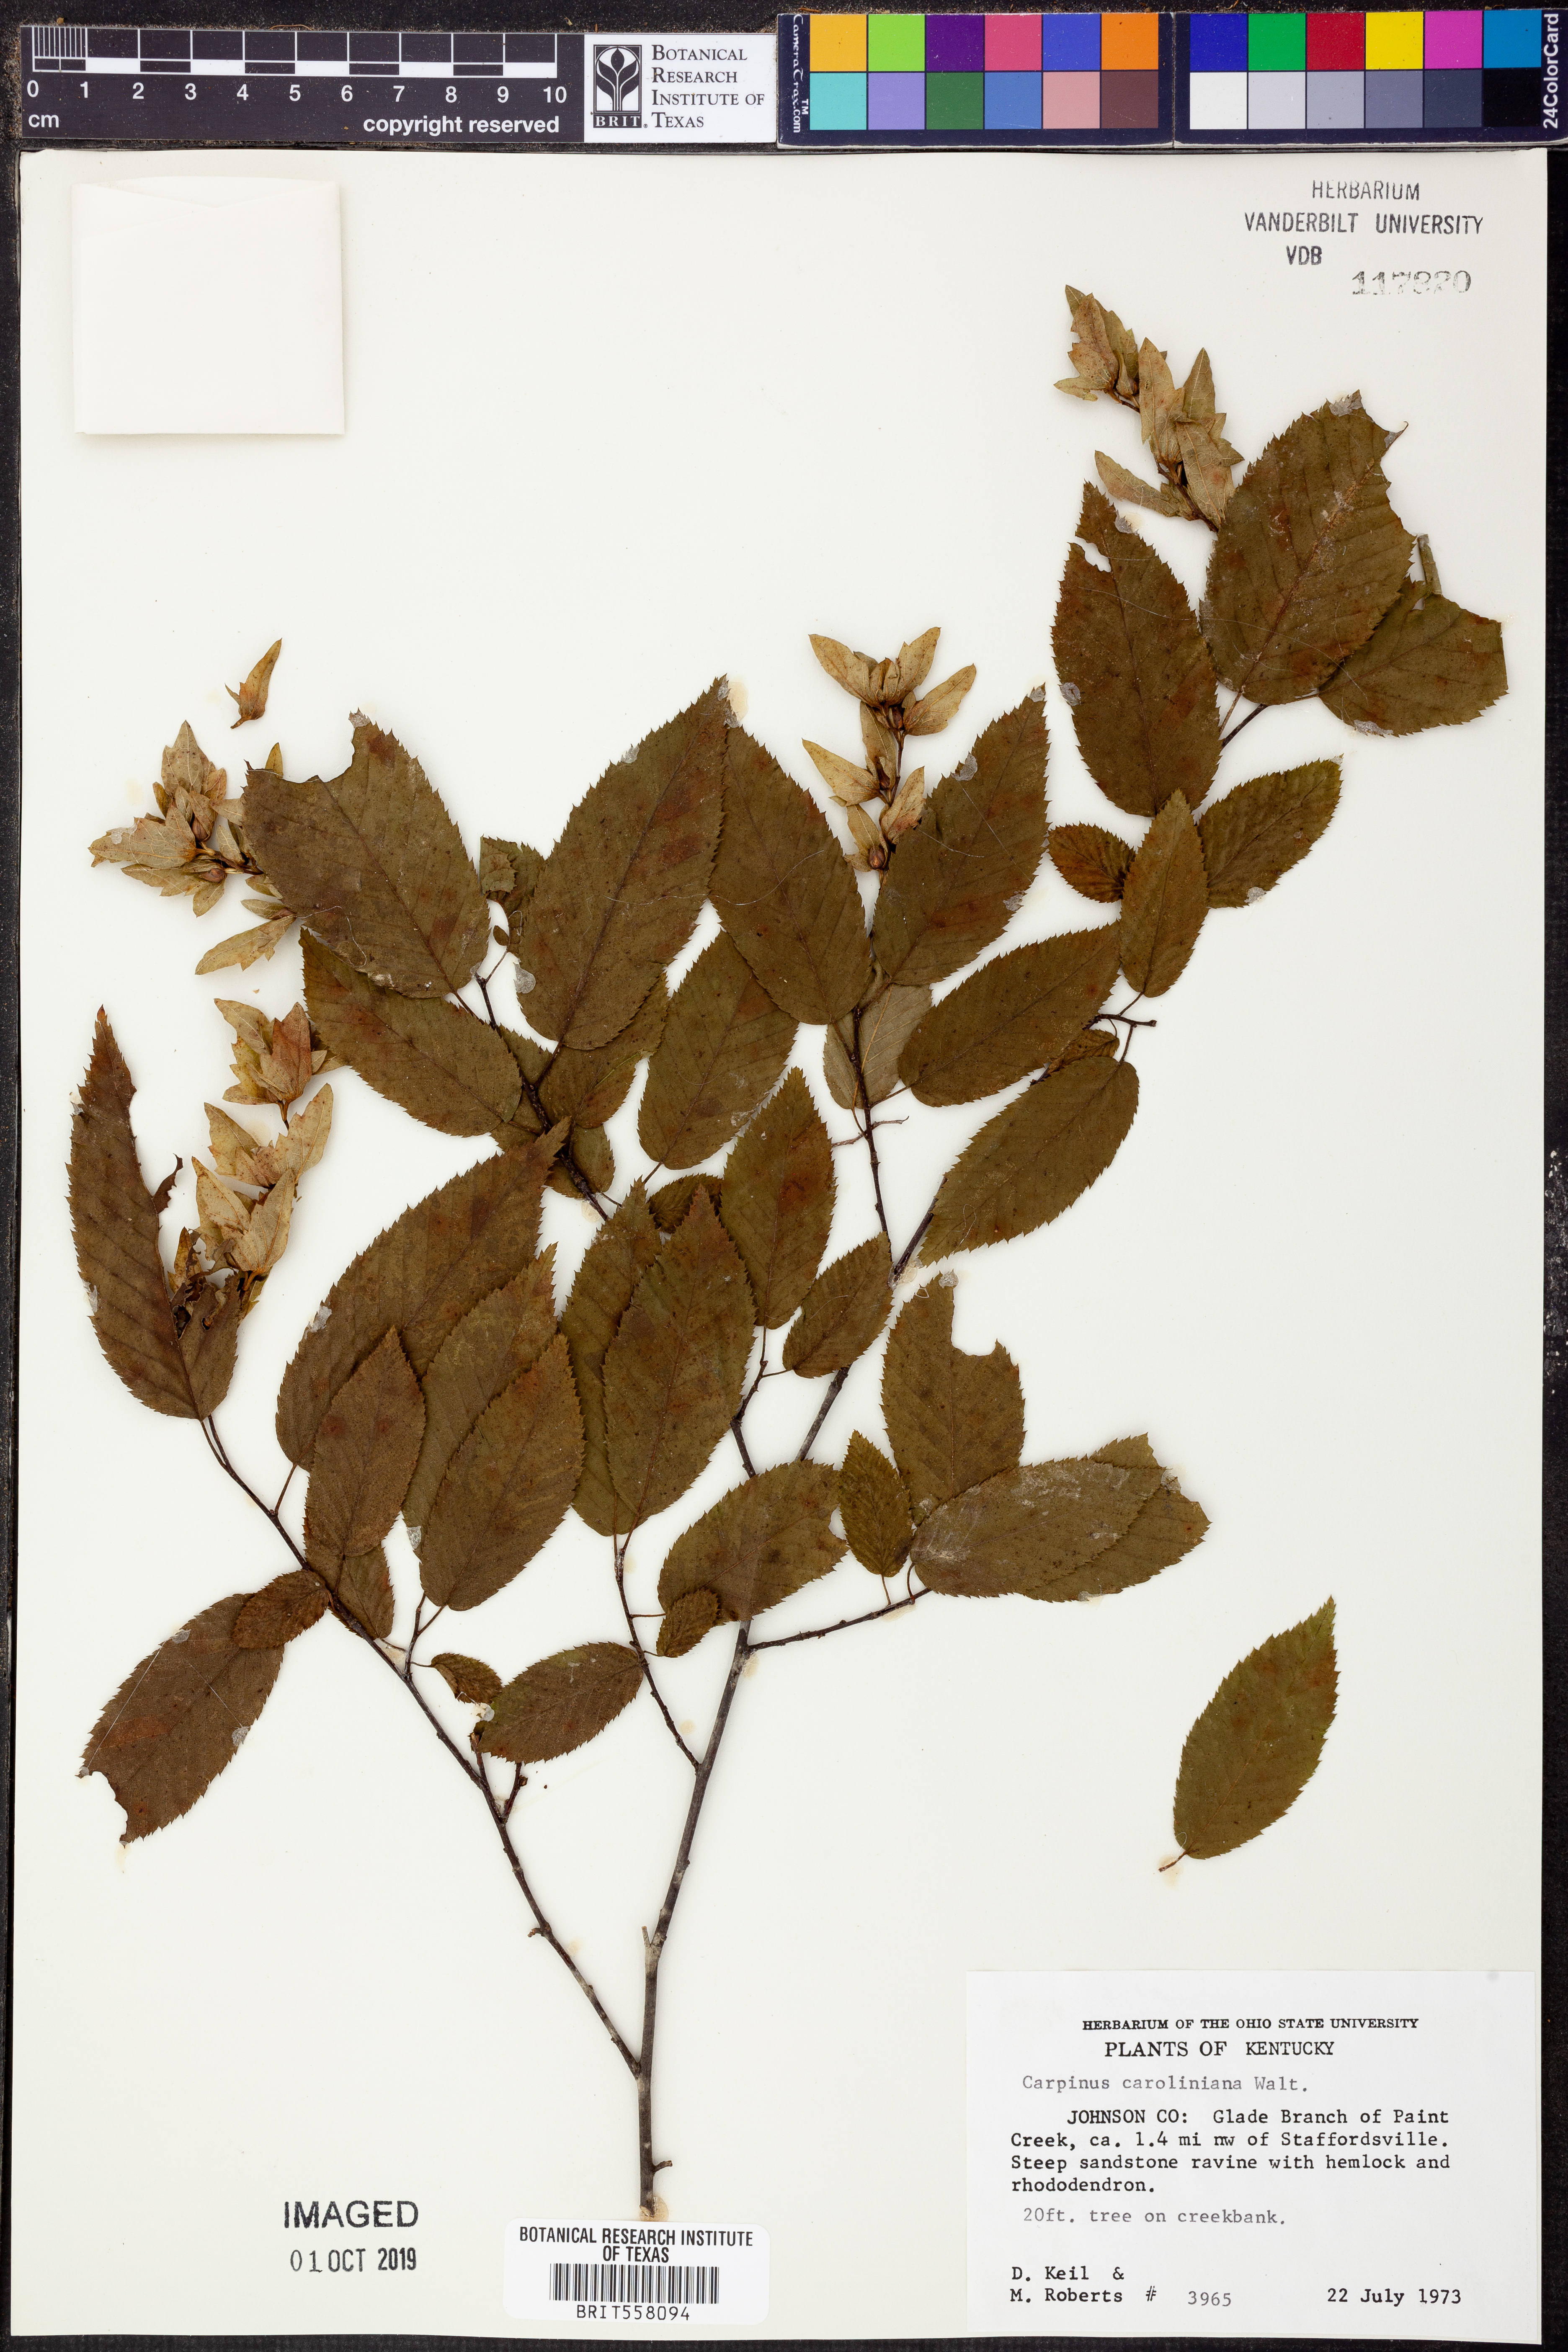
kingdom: Plantae
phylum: Tracheophyta
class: Magnoliopsida
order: Fagales
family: Betulaceae
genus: Carpinus
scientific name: Carpinus caroliniana
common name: American hornbeam
